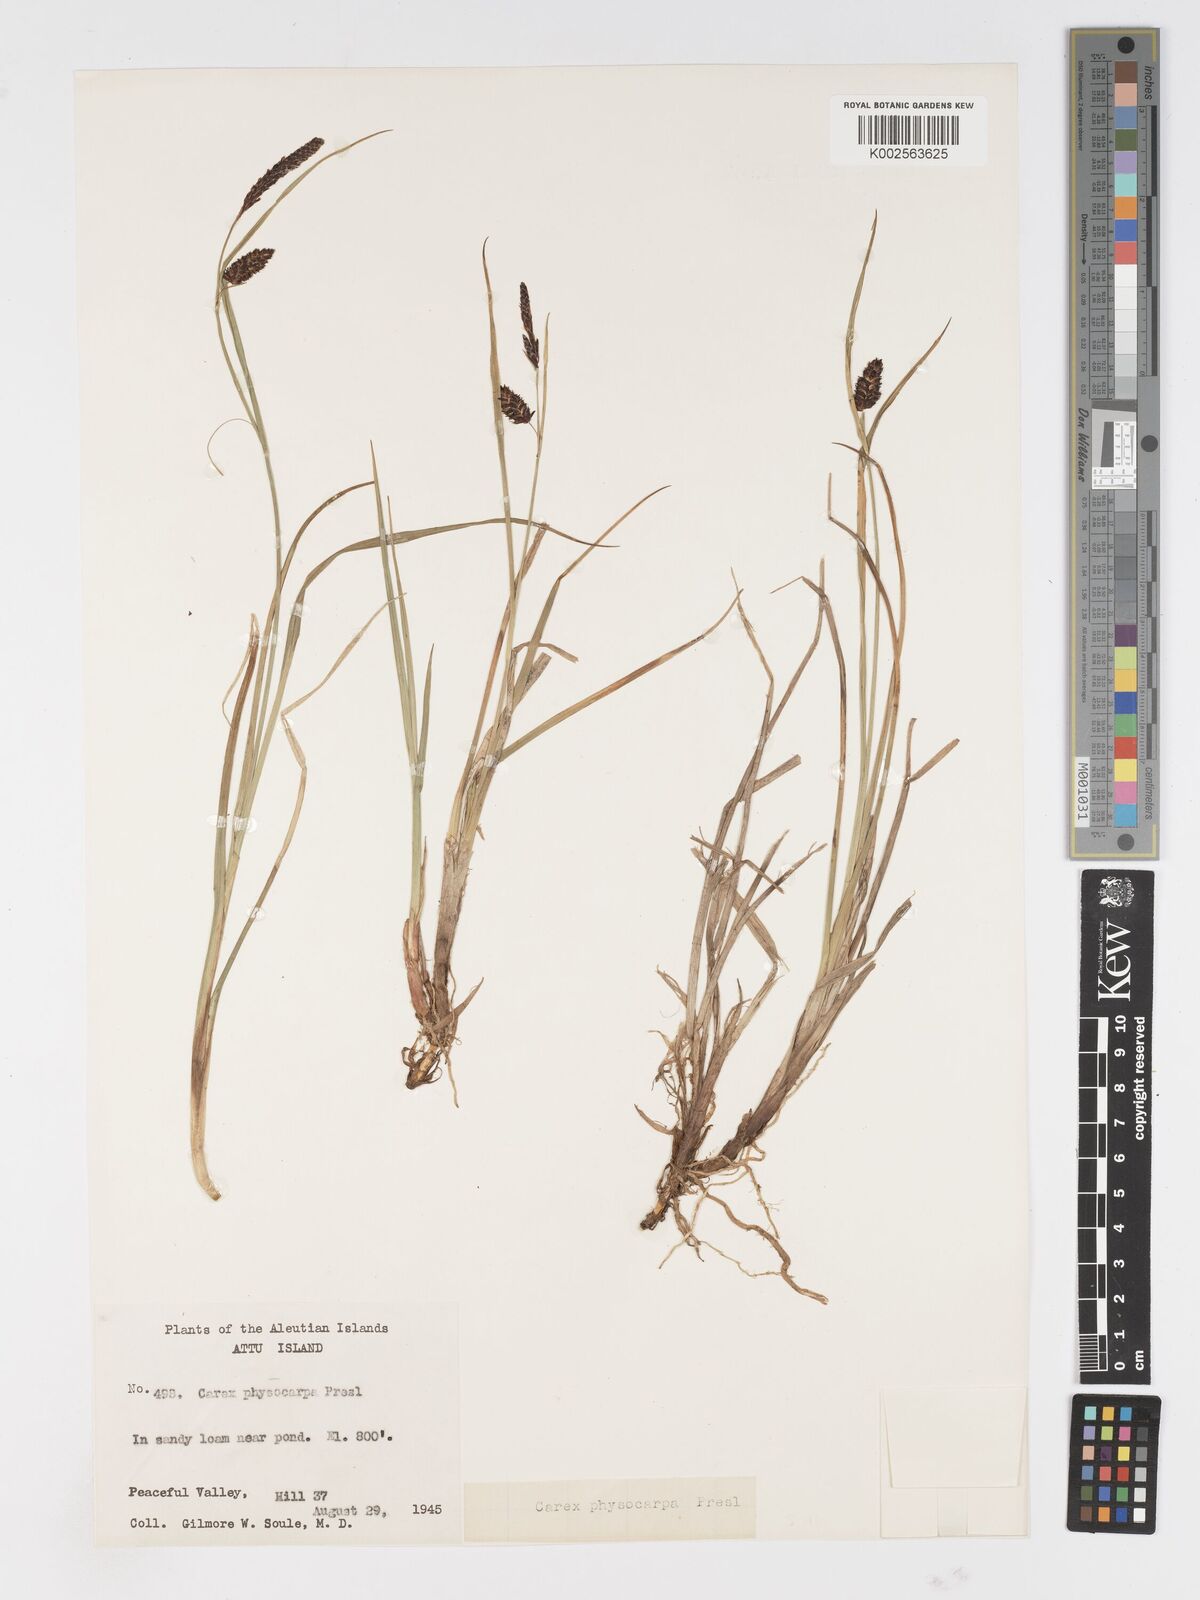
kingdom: Plantae
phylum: Tracheophyta
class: Liliopsida
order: Poales
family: Cyperaceae
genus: Carex
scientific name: Carex saxatilis
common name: Russet sedge
